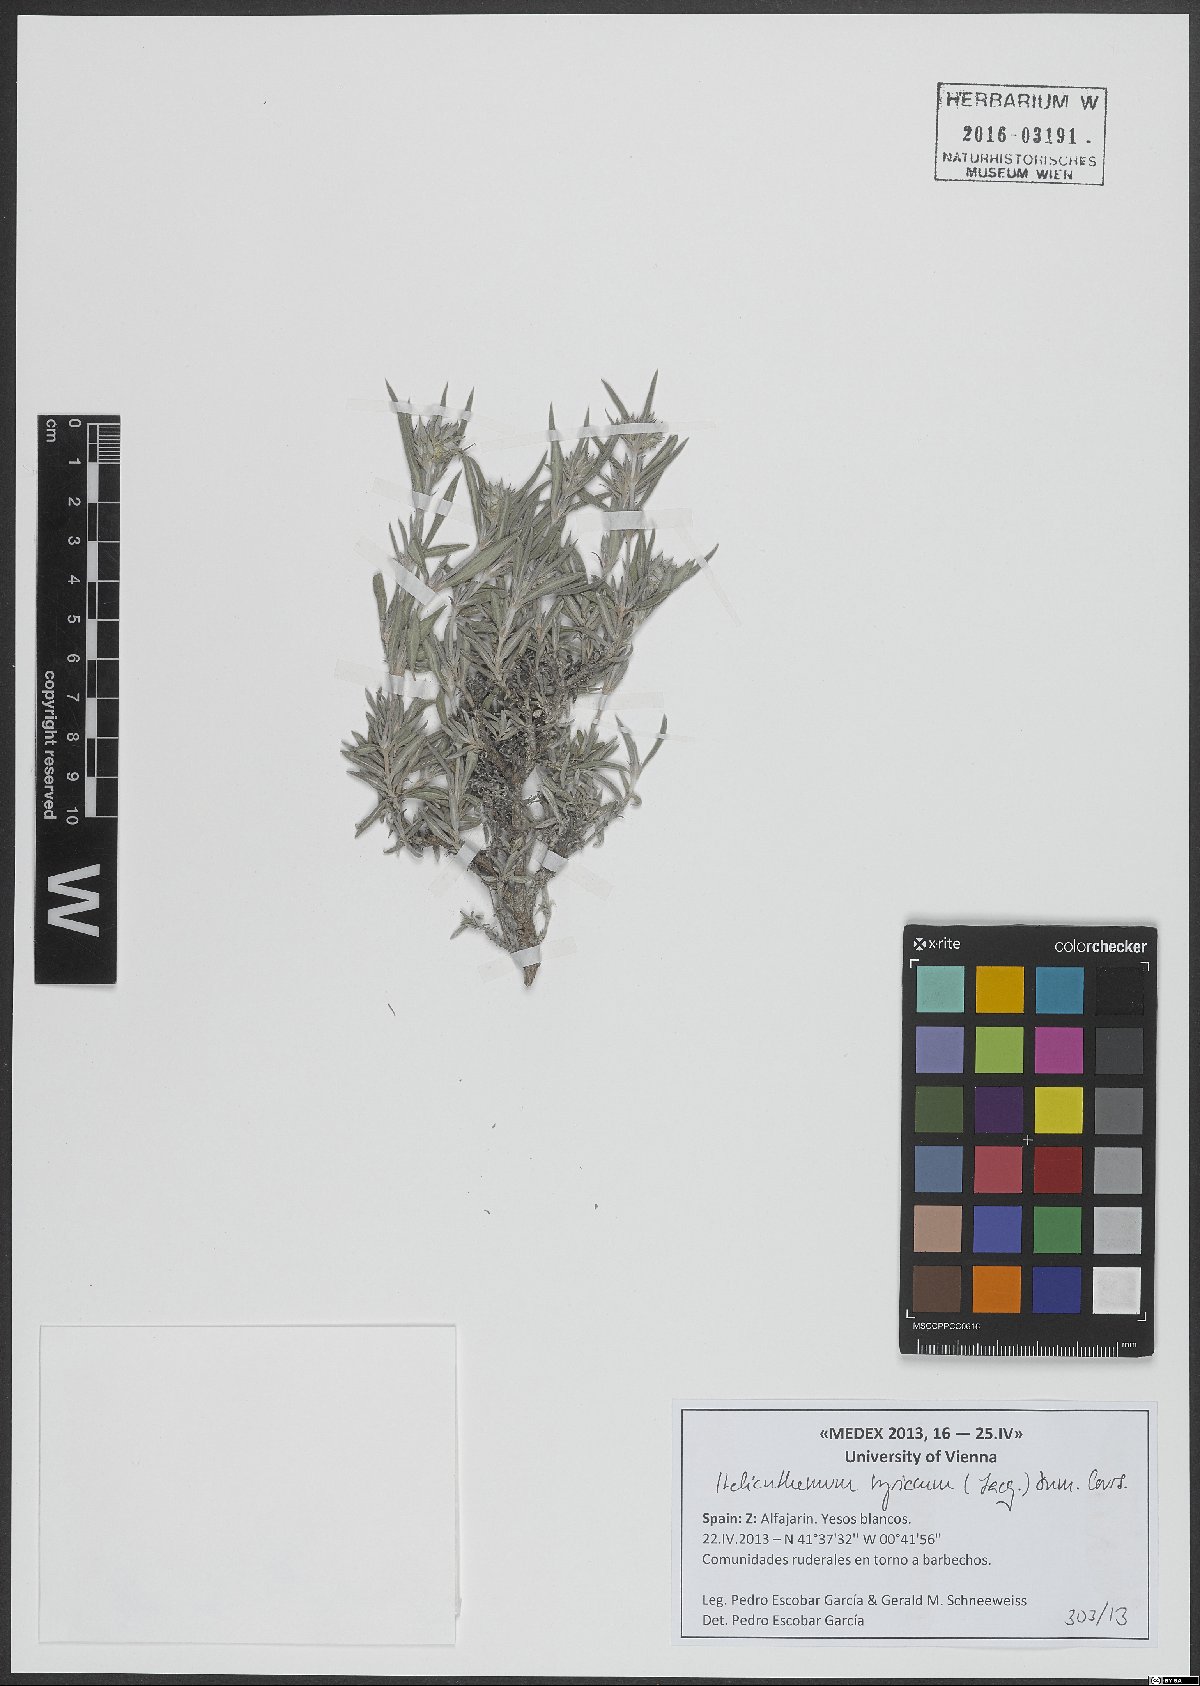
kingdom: Plantae
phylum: Tracheophyta
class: Magnoliopsida
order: Malvales
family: Cistaceae
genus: Helianthemum
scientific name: Helianthemum syriacum
